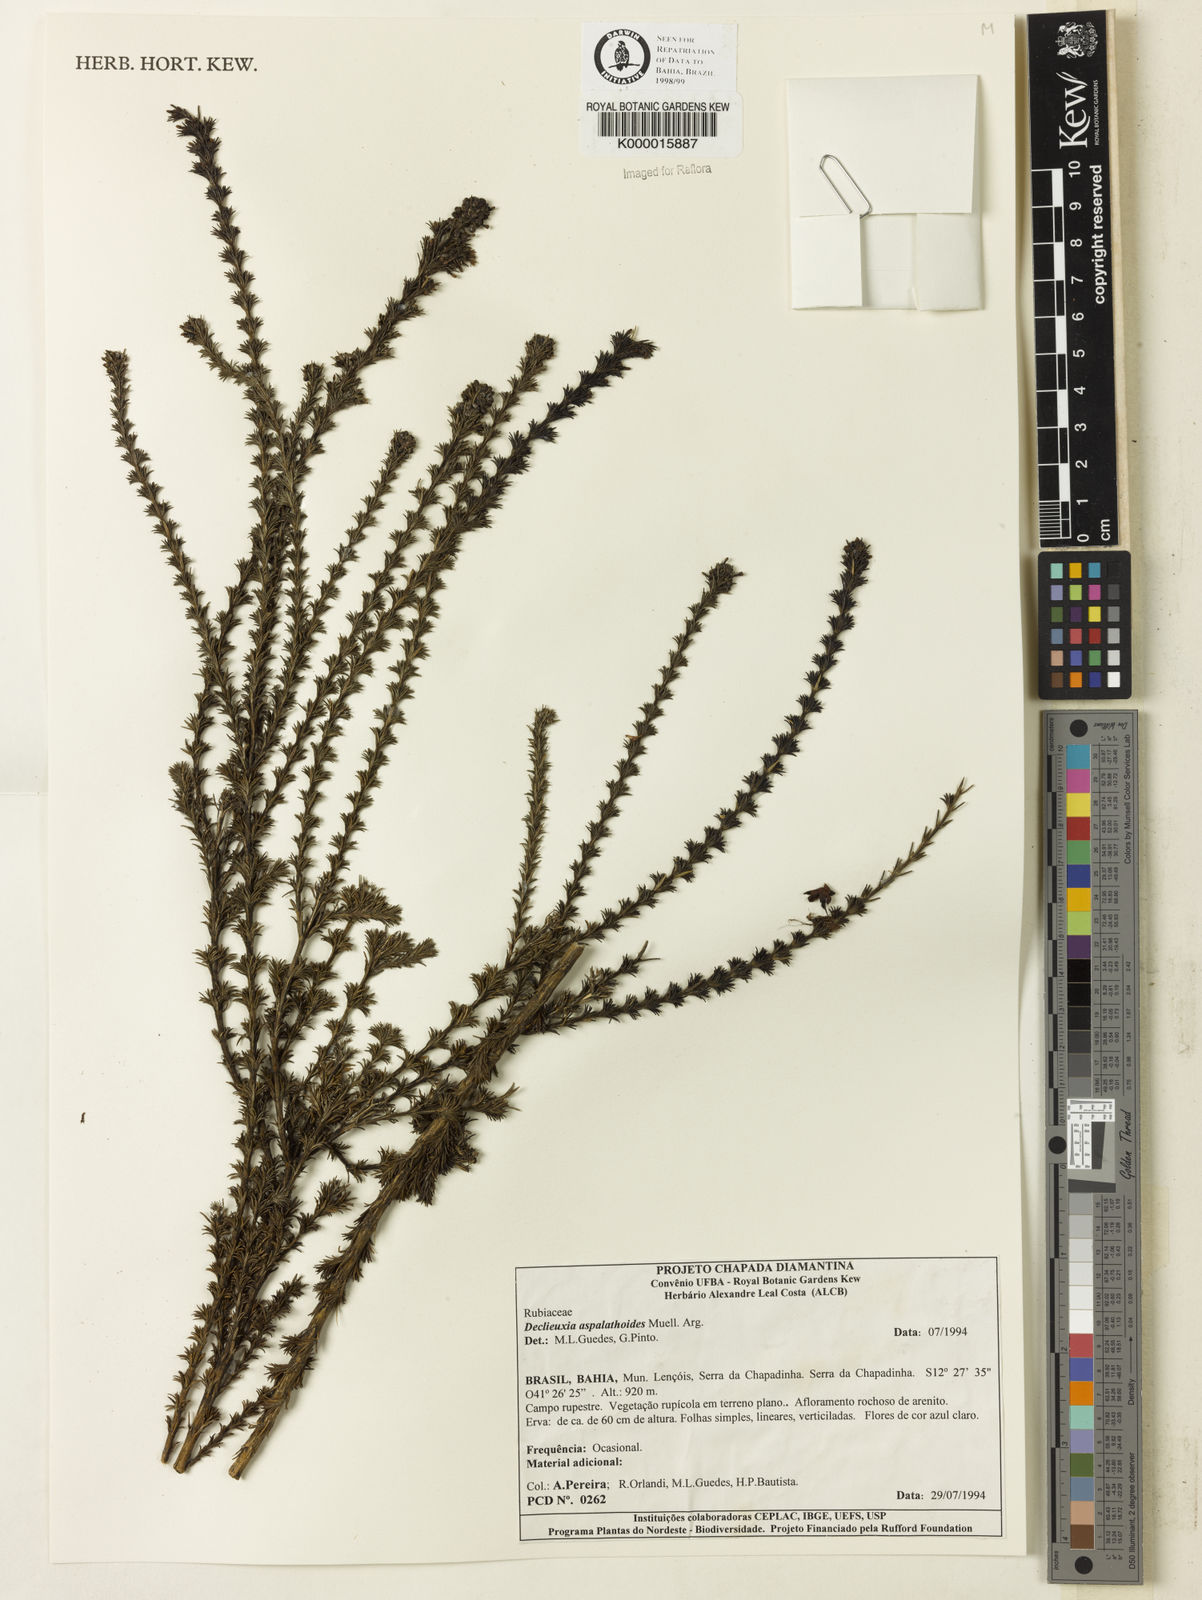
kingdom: Plantae
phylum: Tracheophyta
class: Magnoliopsida
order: Gentianales
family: Rubiaceae
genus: Declieuxia
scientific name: Declieuxia aspalathoides
